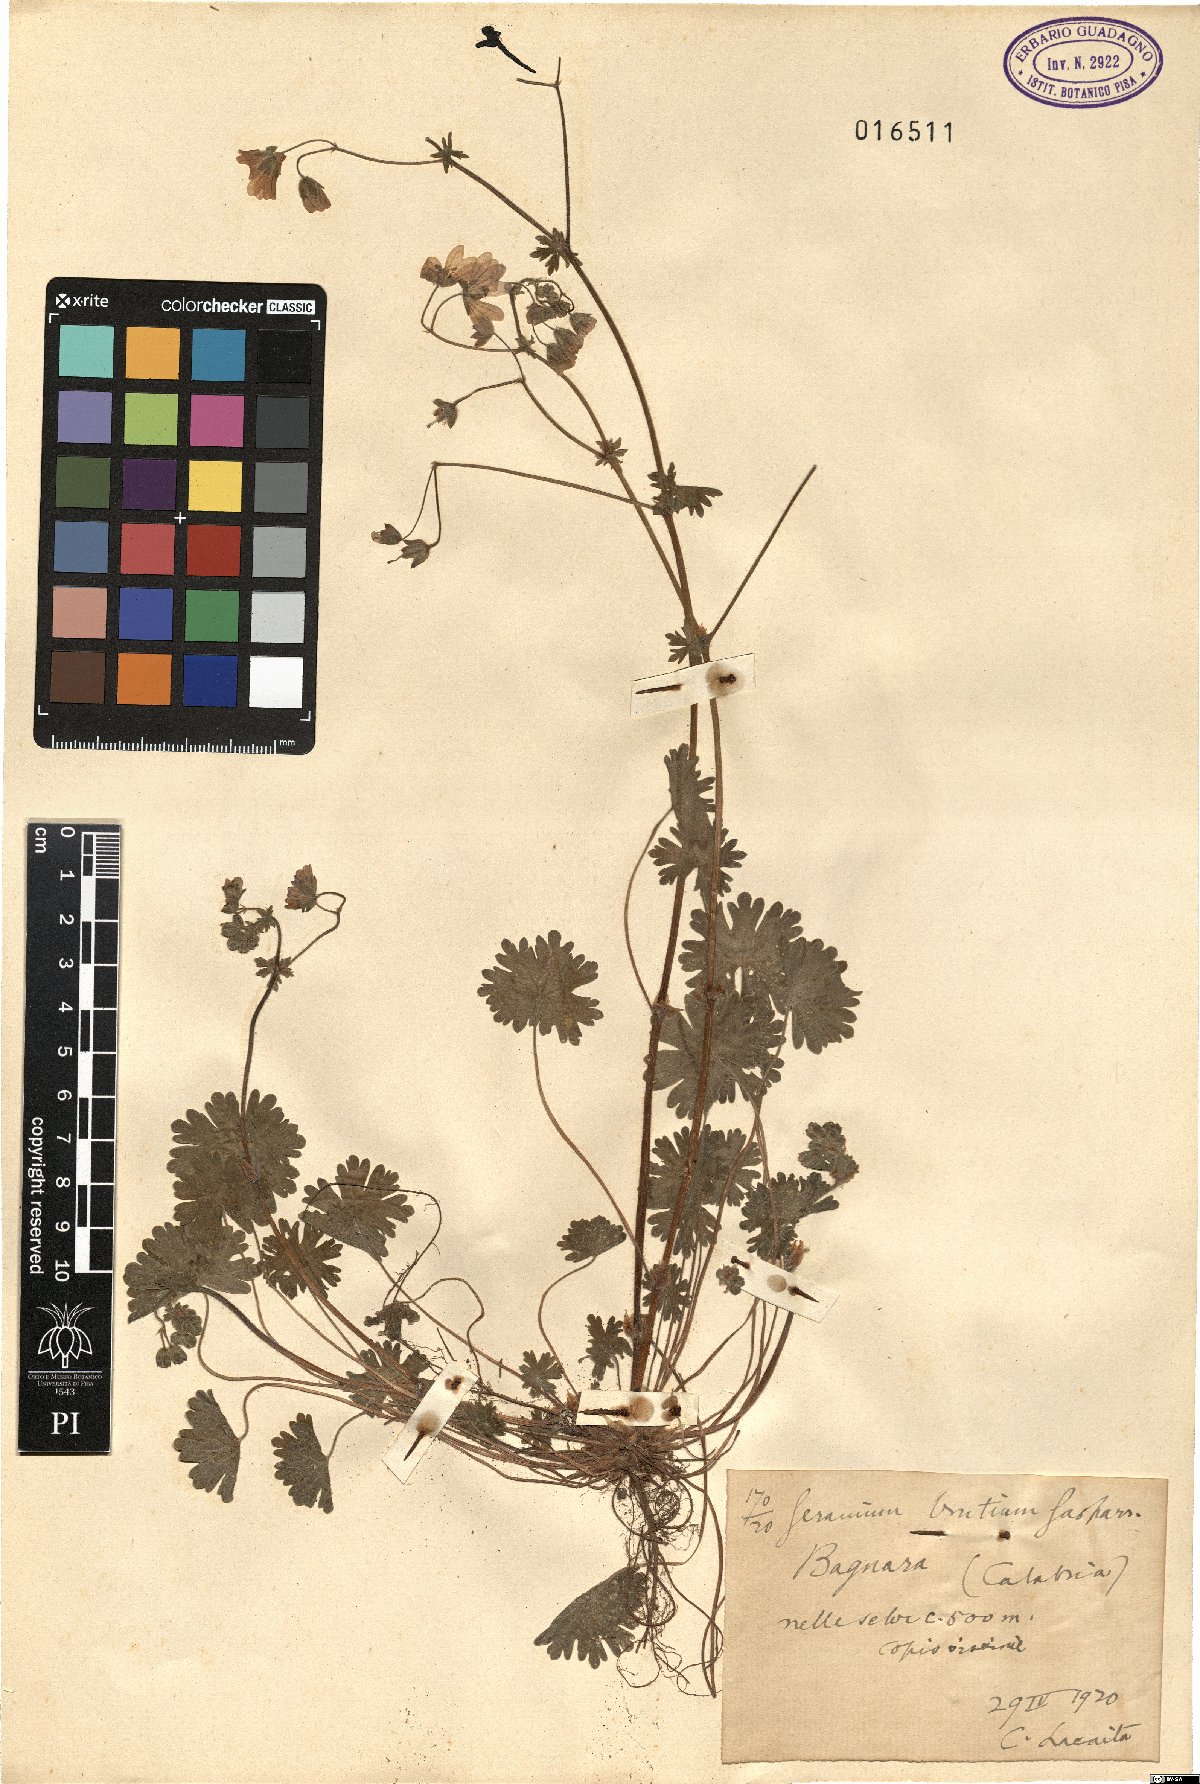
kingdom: Plantae
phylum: Tracheophyta
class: Magnoliopsida
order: Geraniales
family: Geraniaceae
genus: Geranium
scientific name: Geranium molle
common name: Dove's-foot crane's-bill
